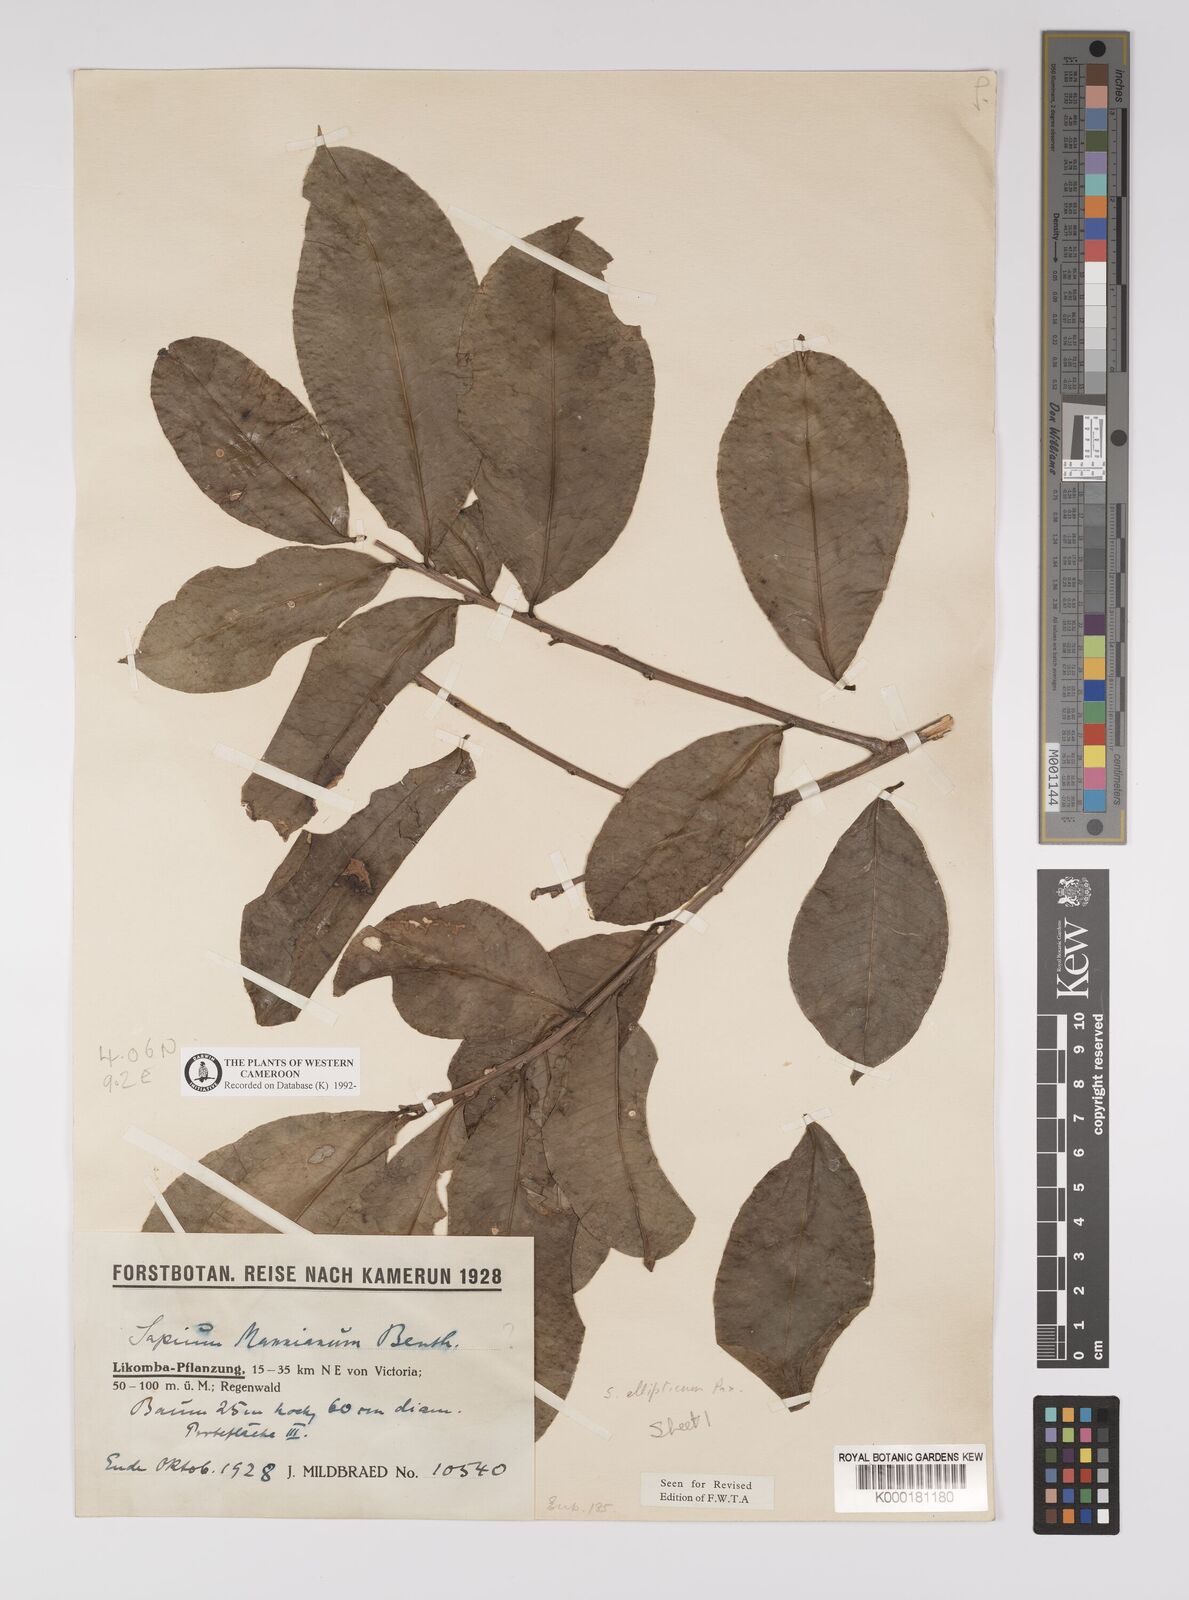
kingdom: Plantae
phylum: Tracheophyta
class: Magnoliopsida
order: Malpighiales
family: Euphorbiaceae
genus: Shirakiopsis
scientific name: Shirakiopsis elliptica
